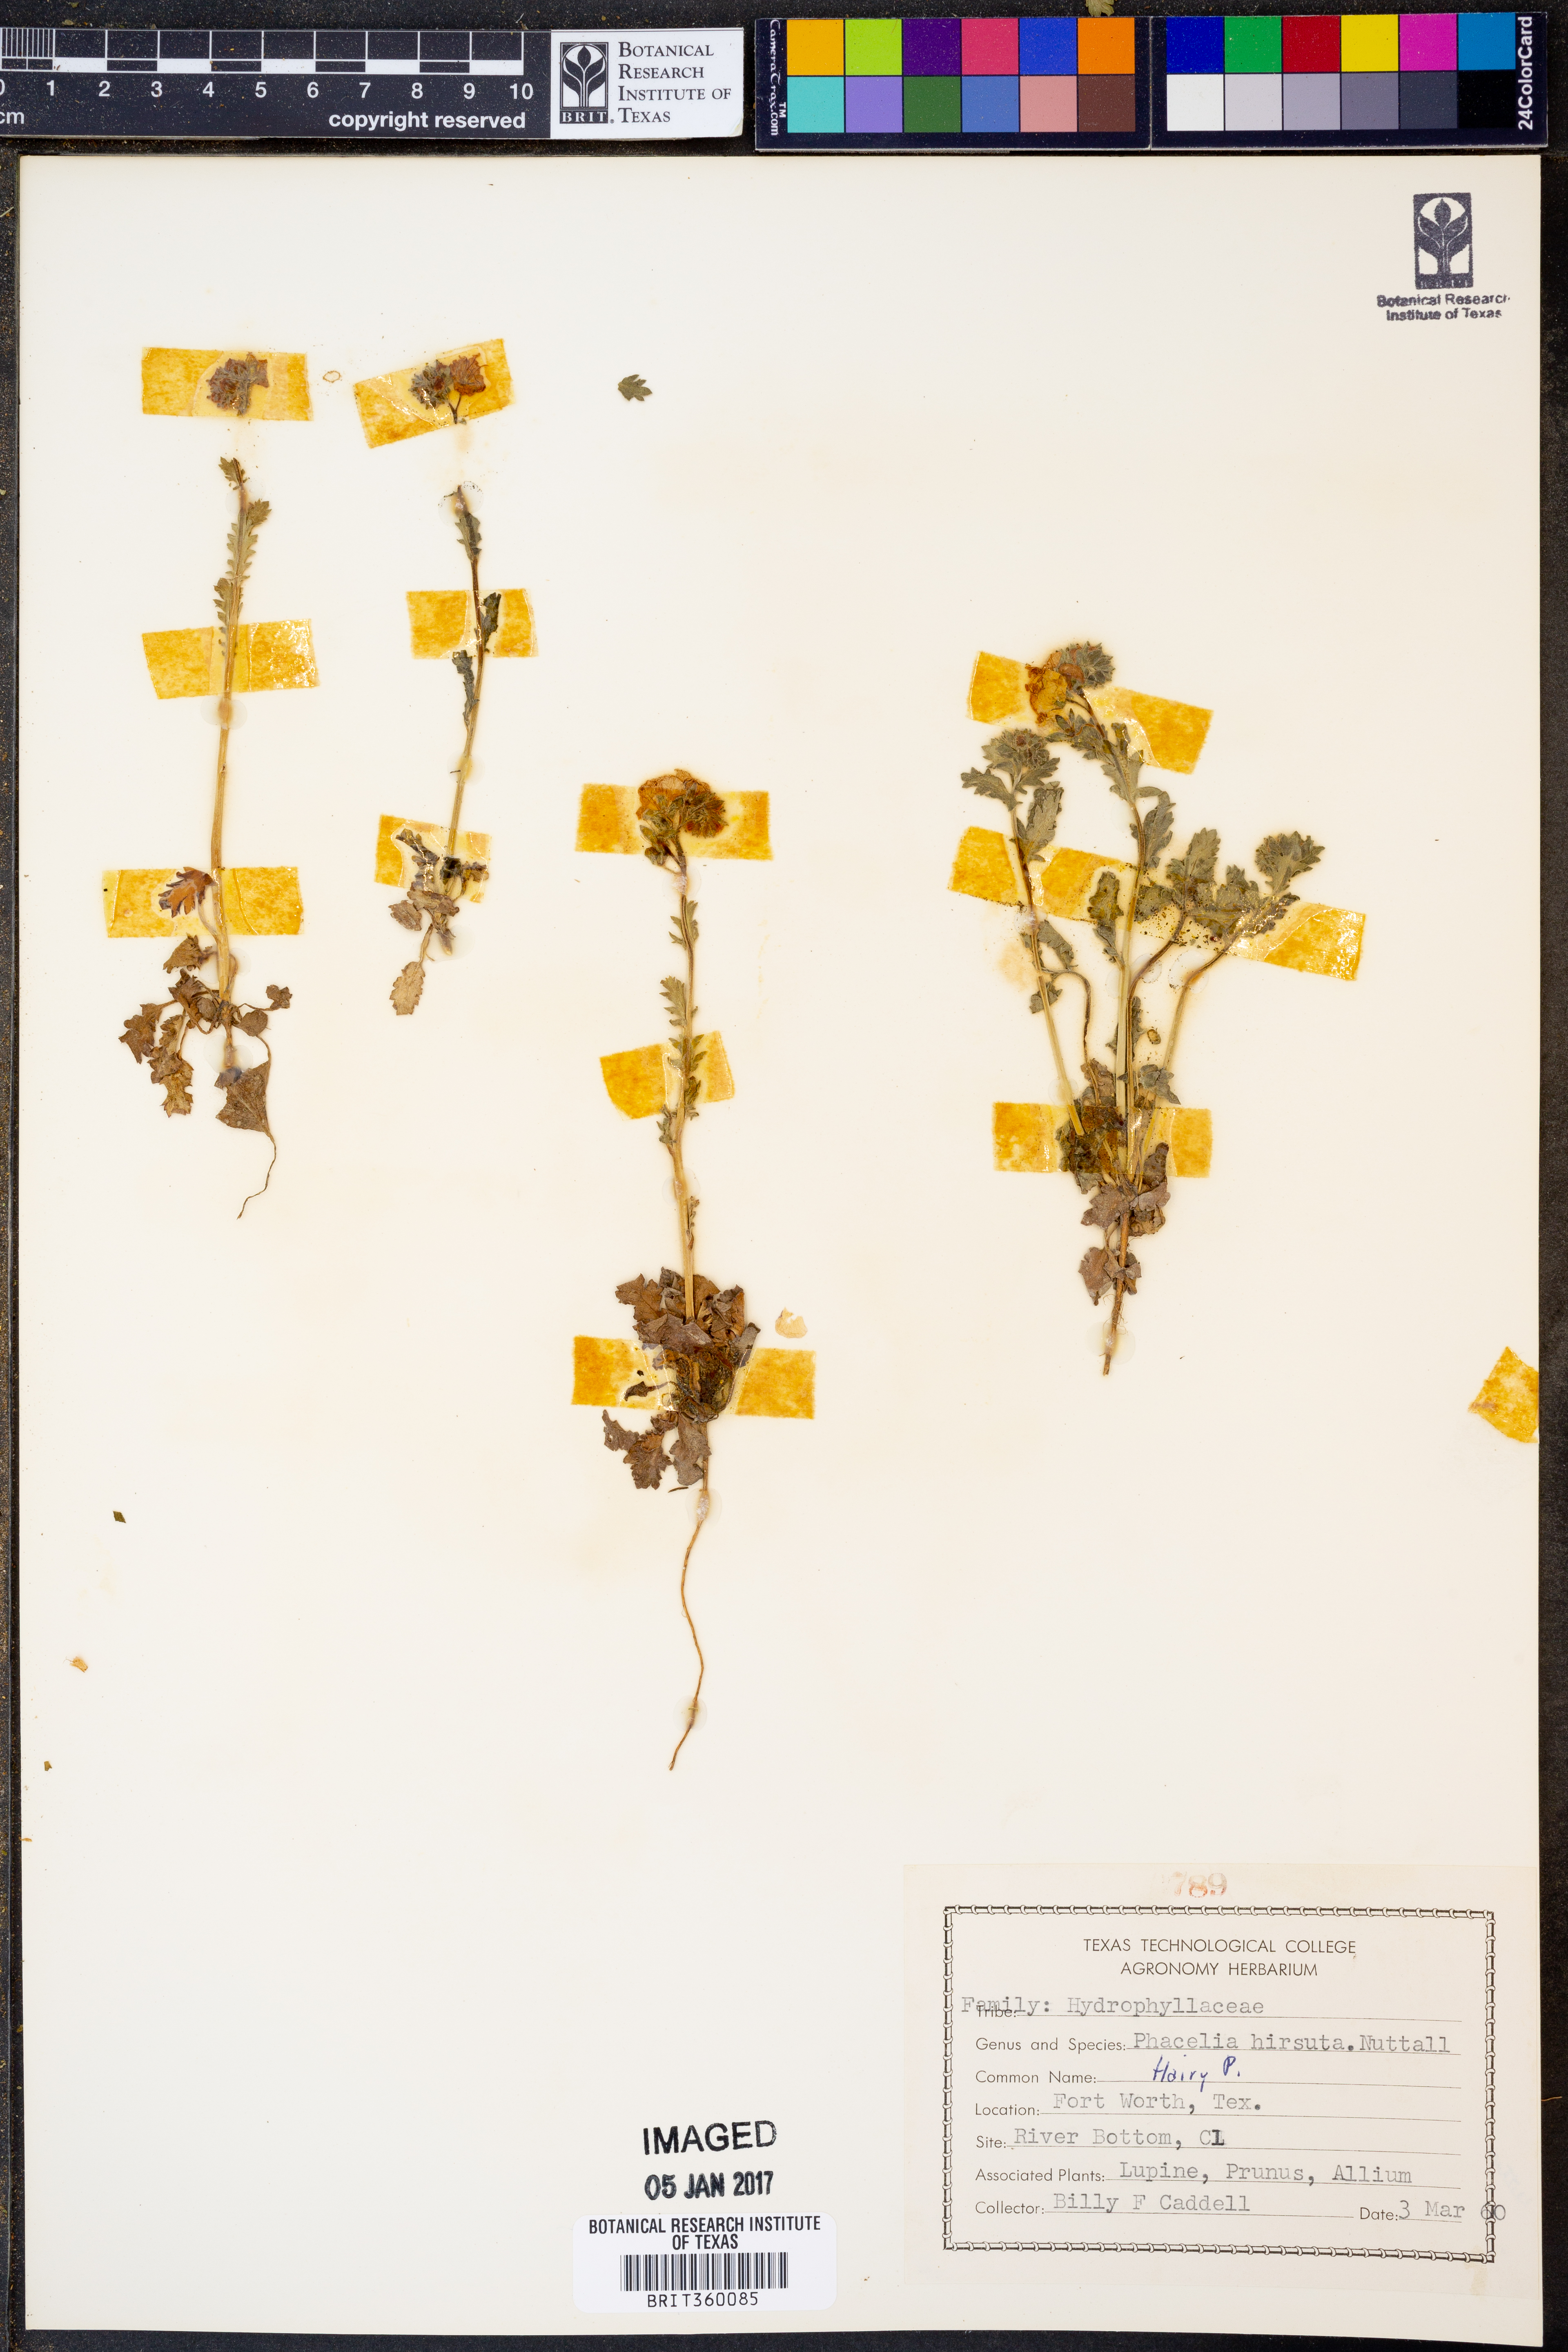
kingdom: Plantae
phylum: Tracheophyta
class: Magnoliopsida
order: Boraginales
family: Hydrophyllaceae
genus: Phacelia
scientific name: Phacelia hirsuta
